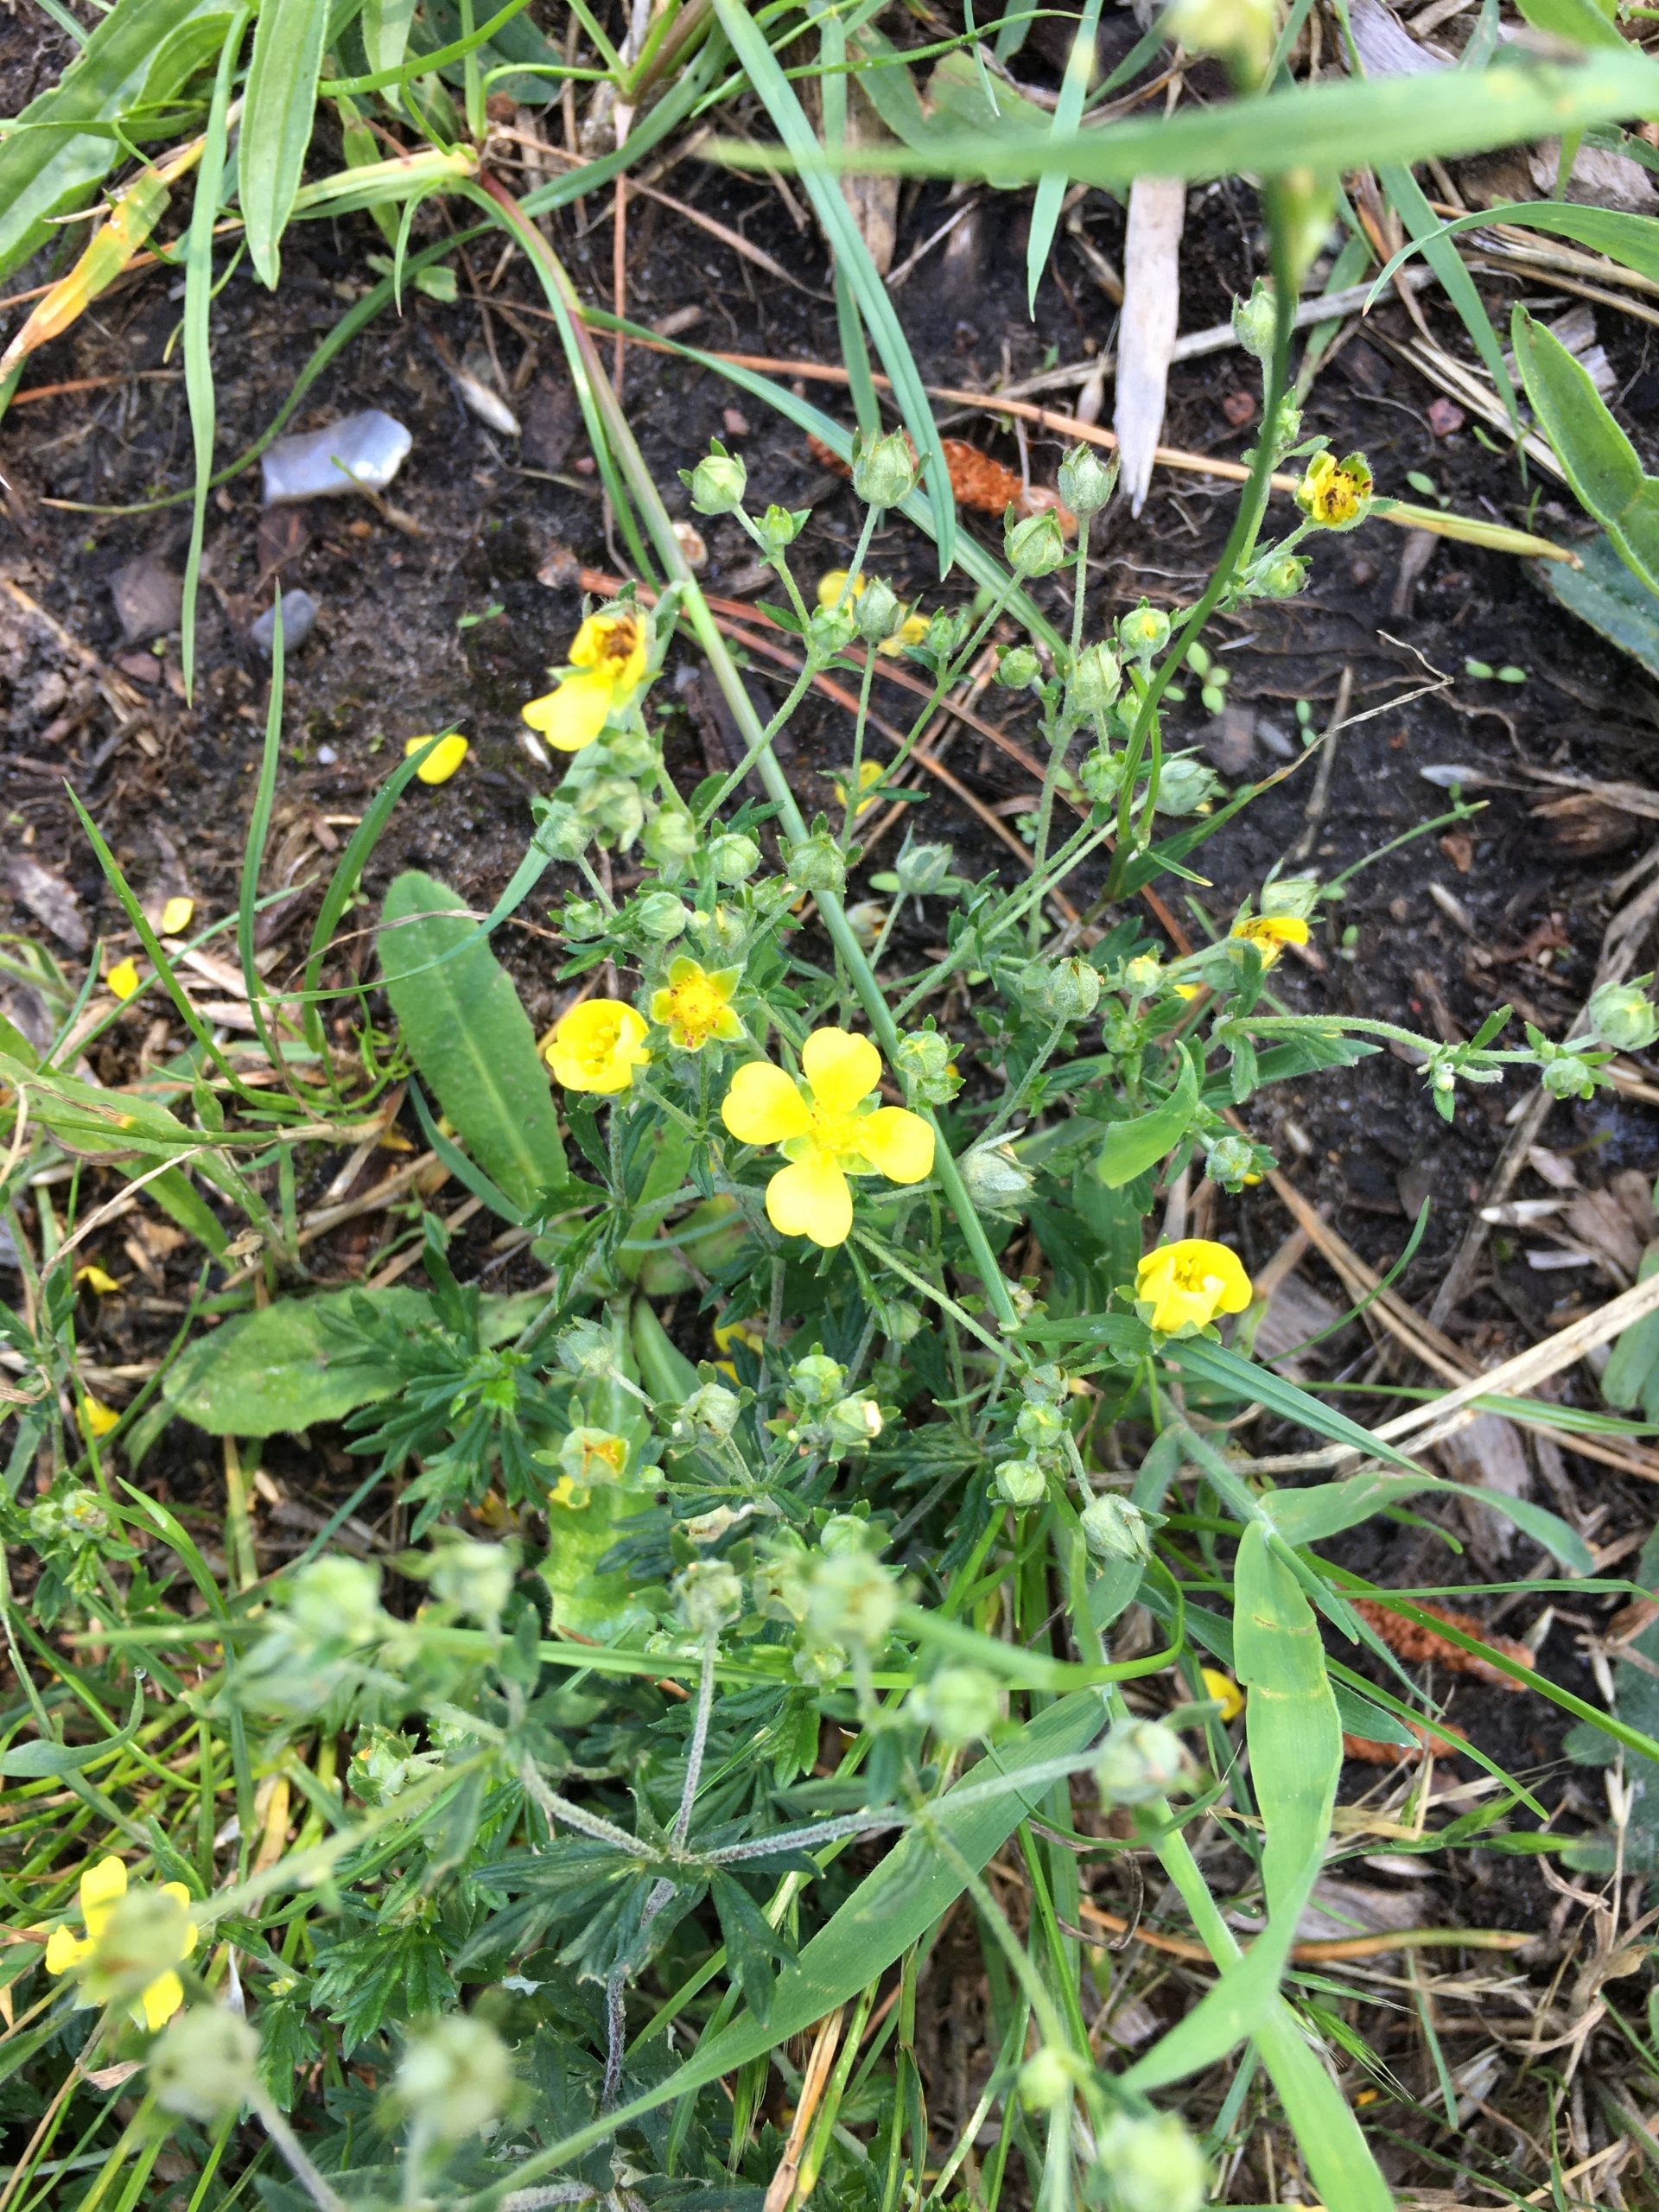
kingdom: Plantae
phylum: Tracheophyta
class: Magnoliopsida
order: Rosales
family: Rosaceae
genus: Potentilla
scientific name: Potentilla argentea
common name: Sølv-potentil
